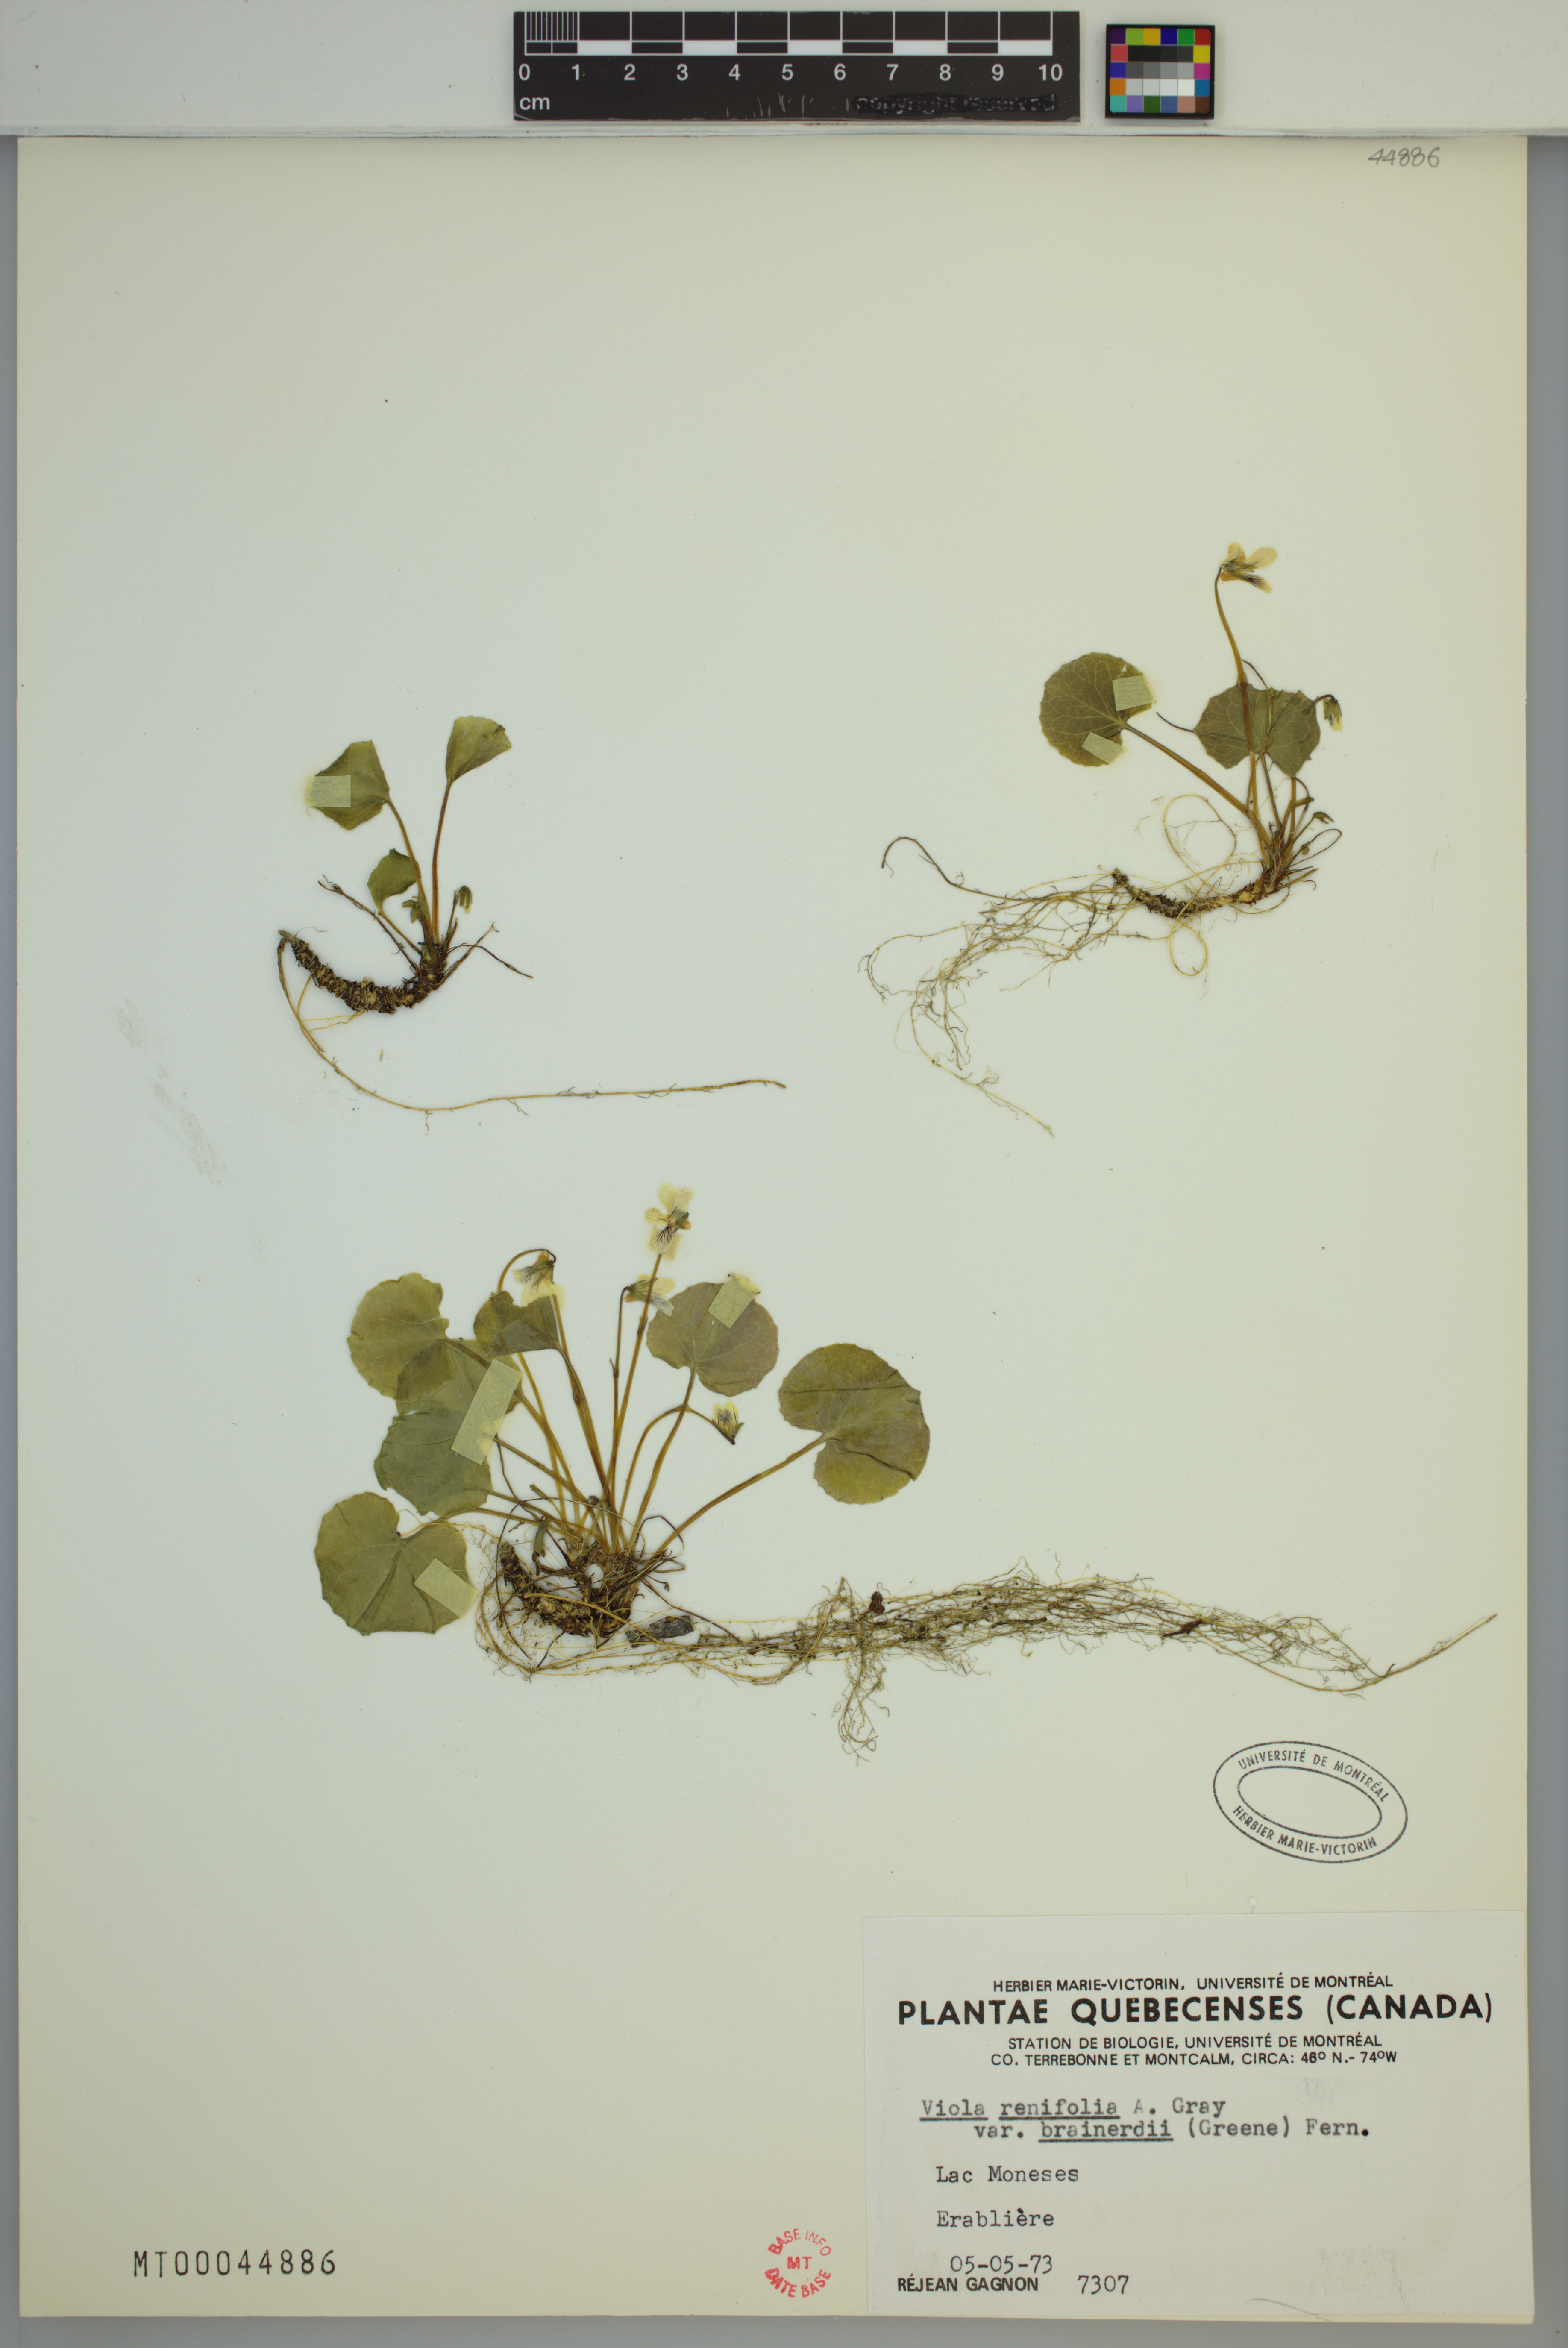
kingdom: Plantae
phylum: Tracheophyta
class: Magnoliopsida
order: Malpighiales
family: Violaceae
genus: Viola
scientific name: Viola renifolia
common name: Kidney-leaf violet
